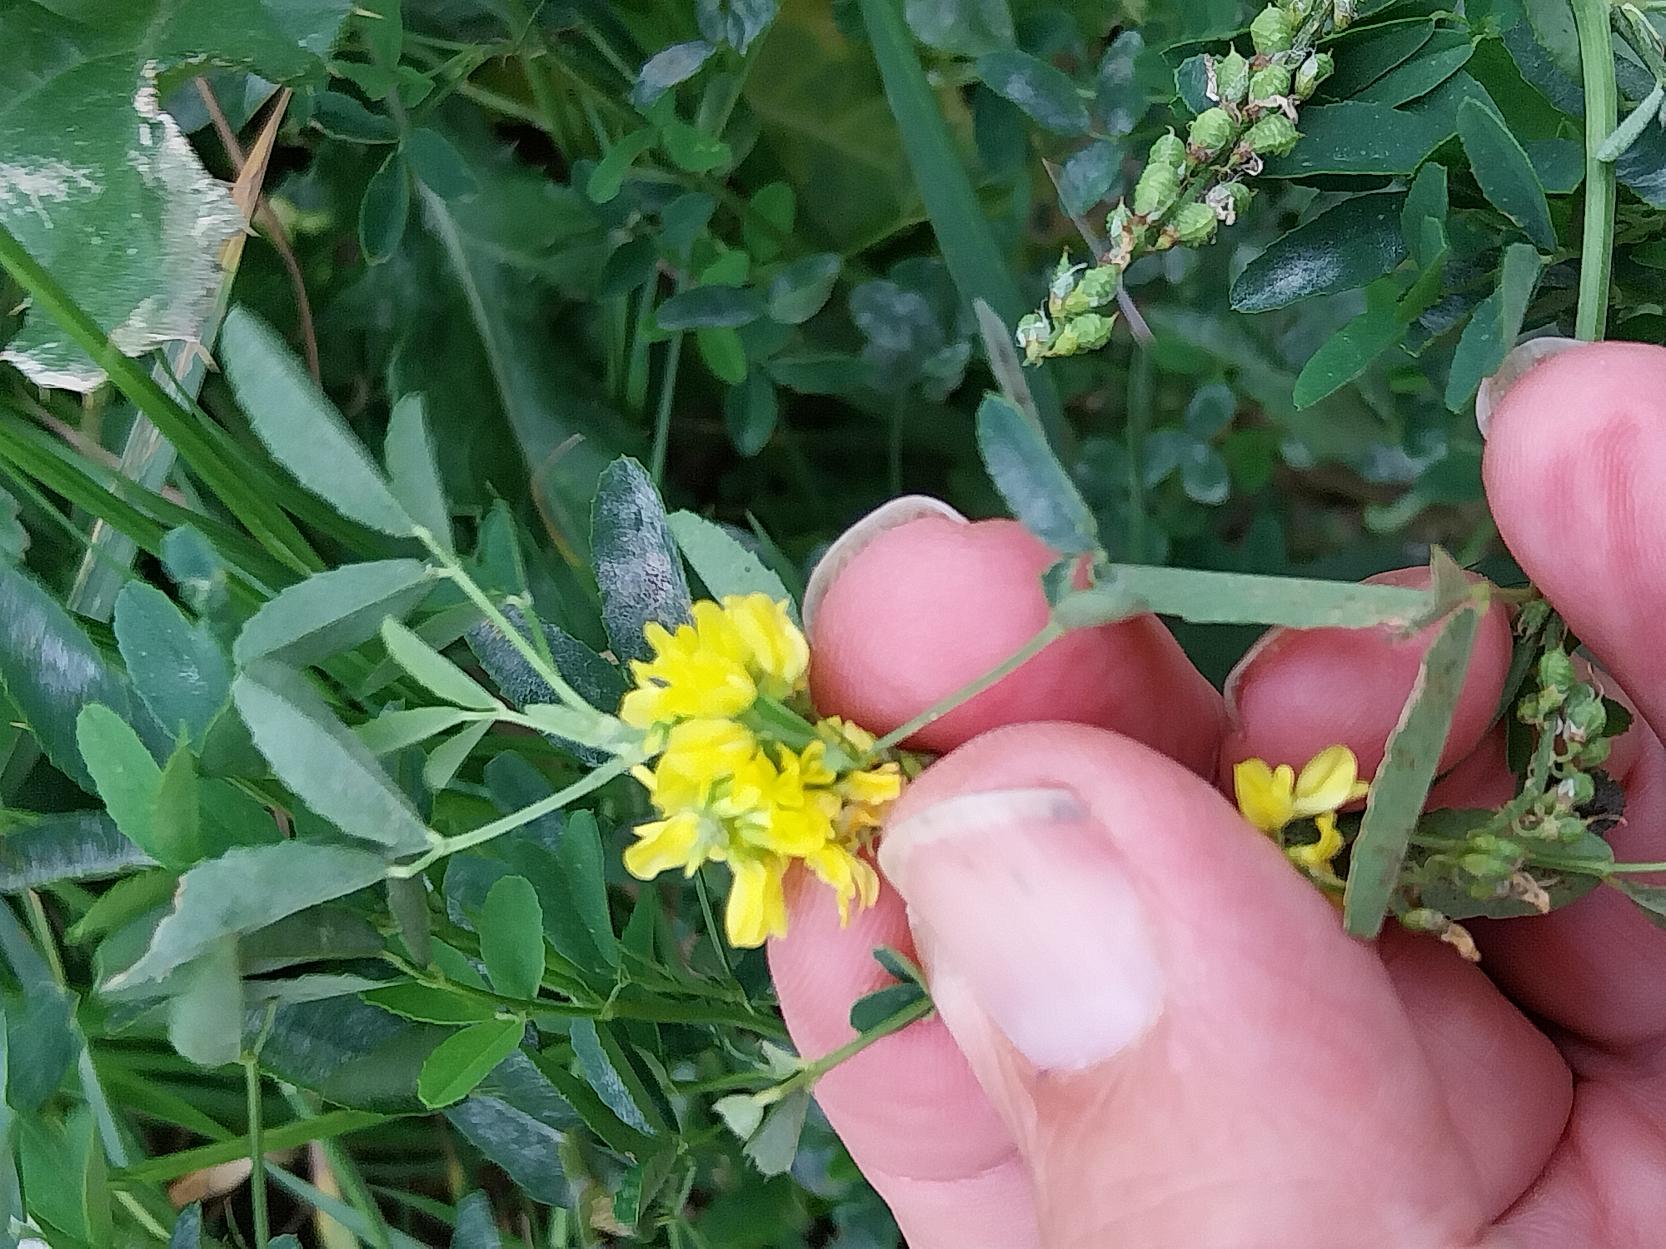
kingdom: Plantae
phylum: Tracheophyta
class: Magnoliopsida
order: Fabales
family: Fabaceae
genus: Melilotus
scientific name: Melilotus officinalis
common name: Mark-stenkløver
